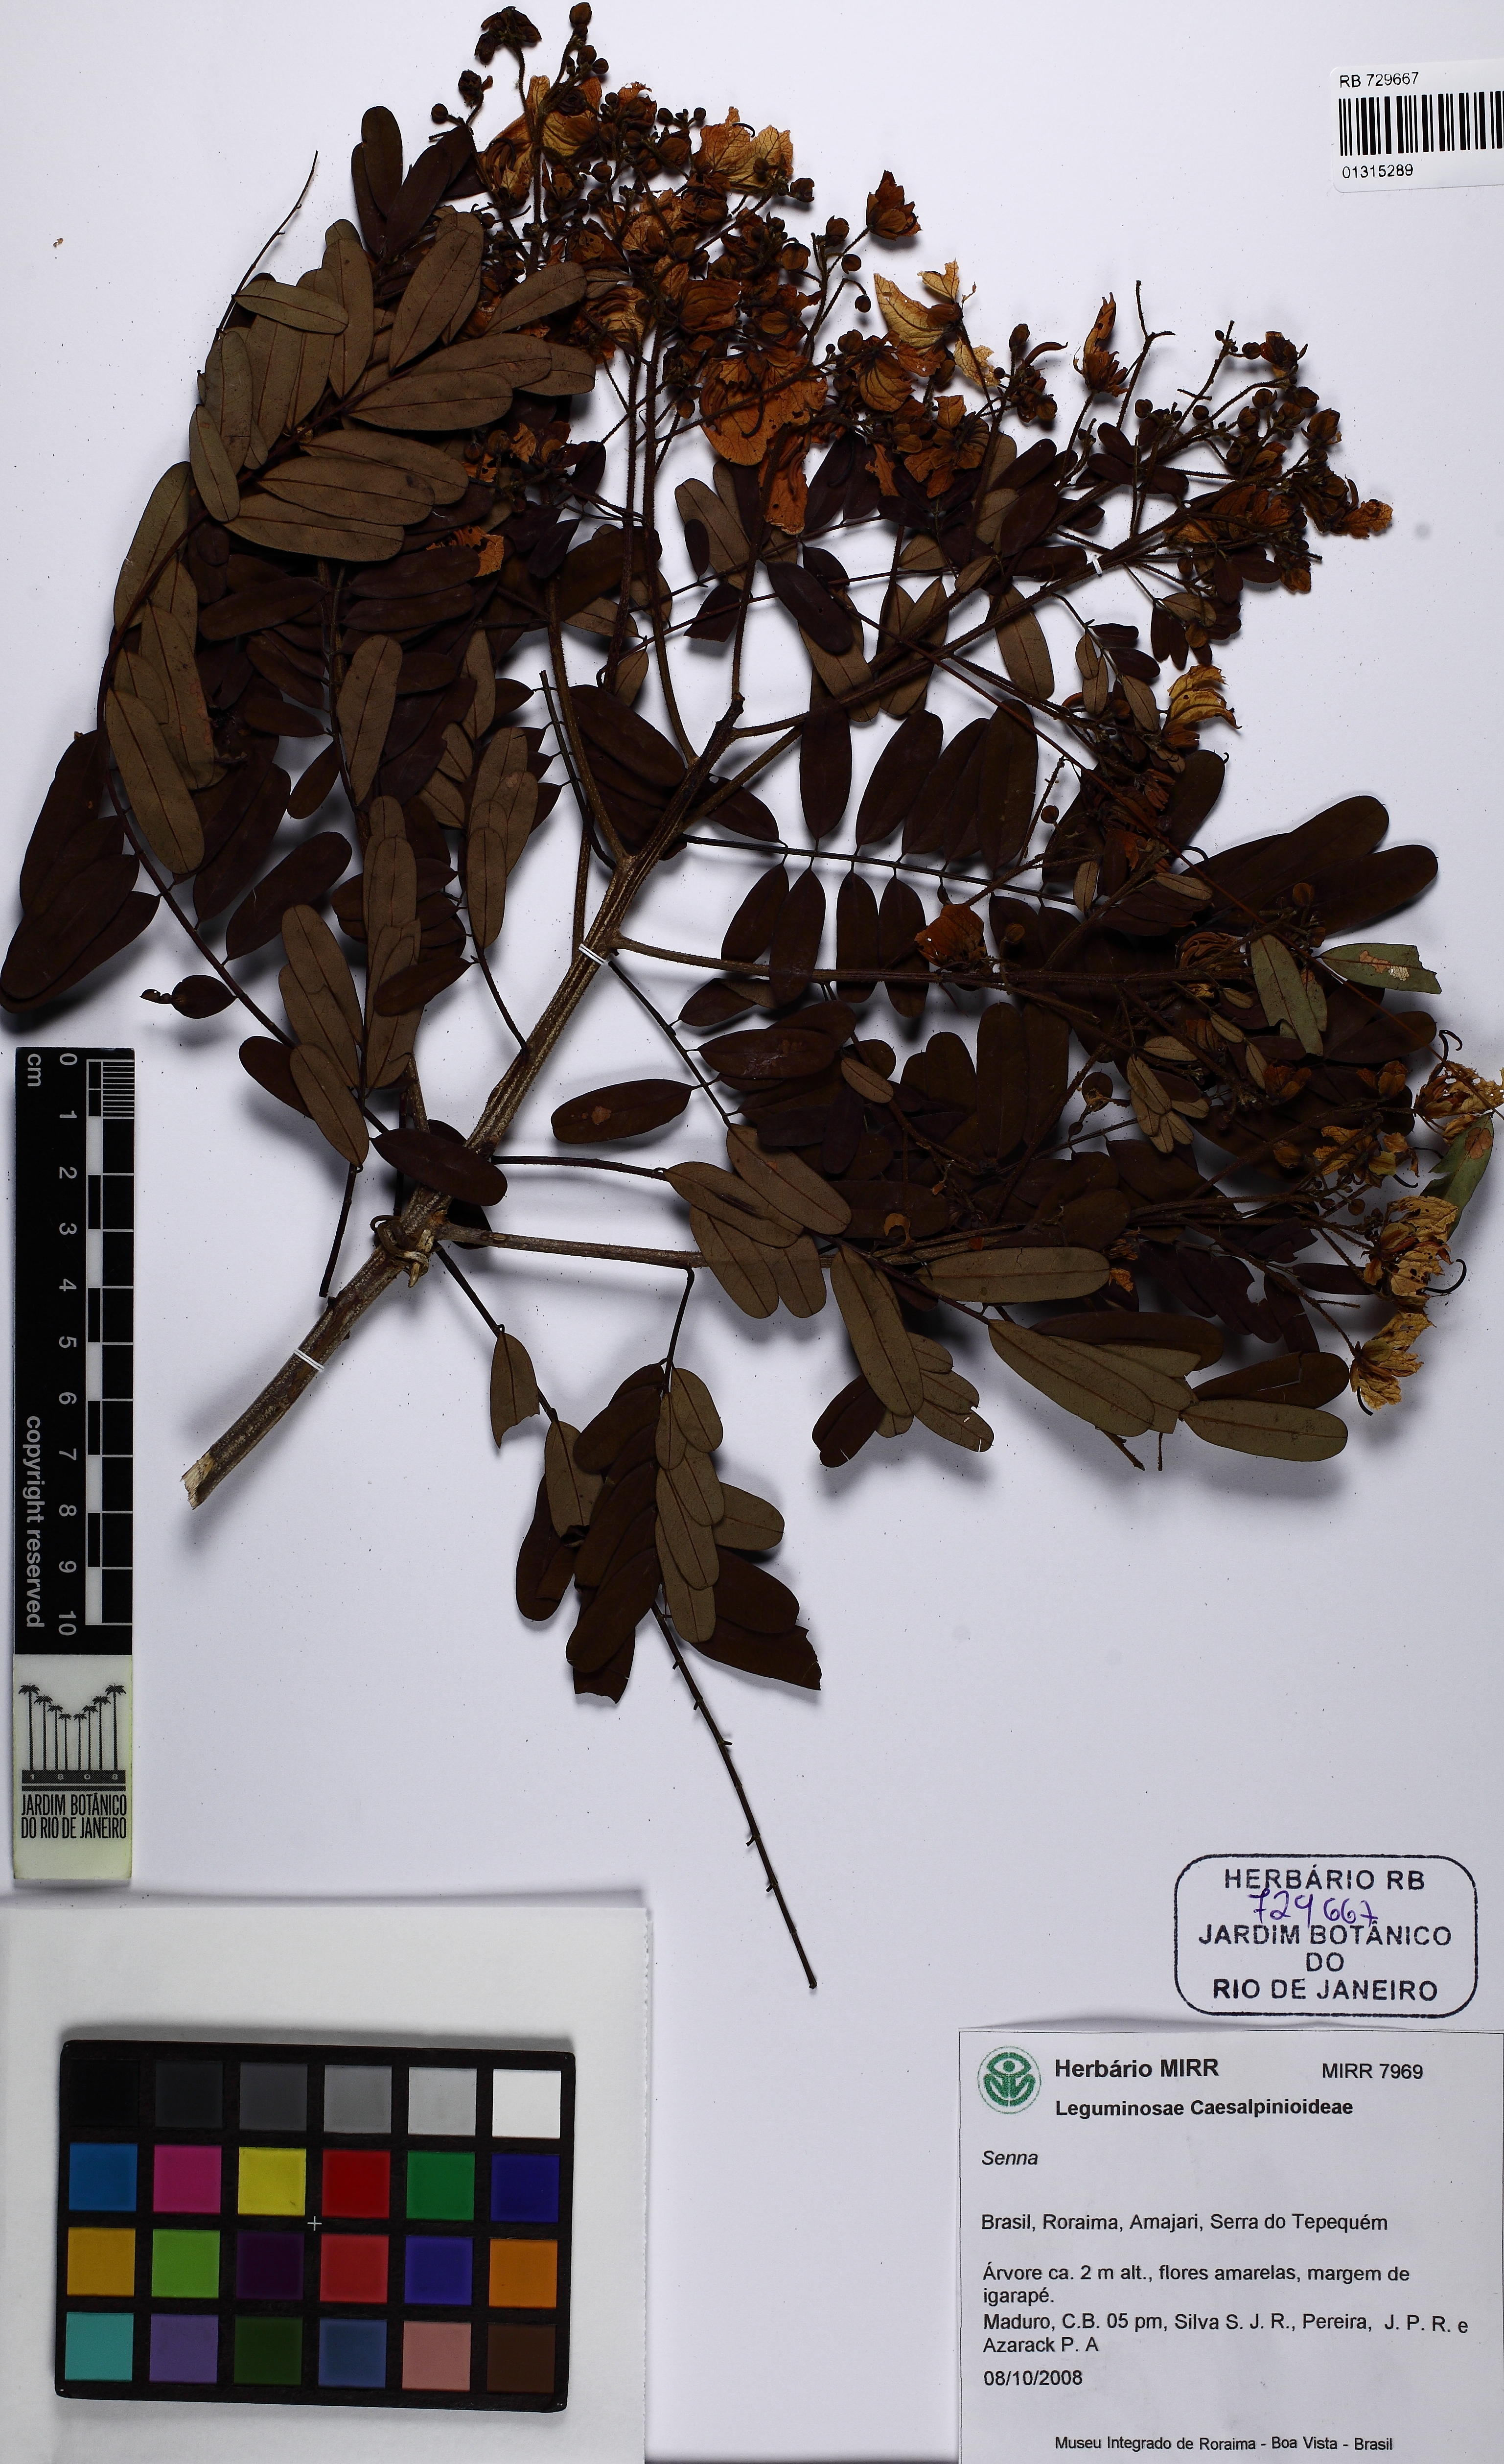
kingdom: Plantae
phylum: Tracheophyta
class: Magnoliopsida
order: Fabales
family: Fabaceae
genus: Senna
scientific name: Senna multijuga
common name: False sicklepod
